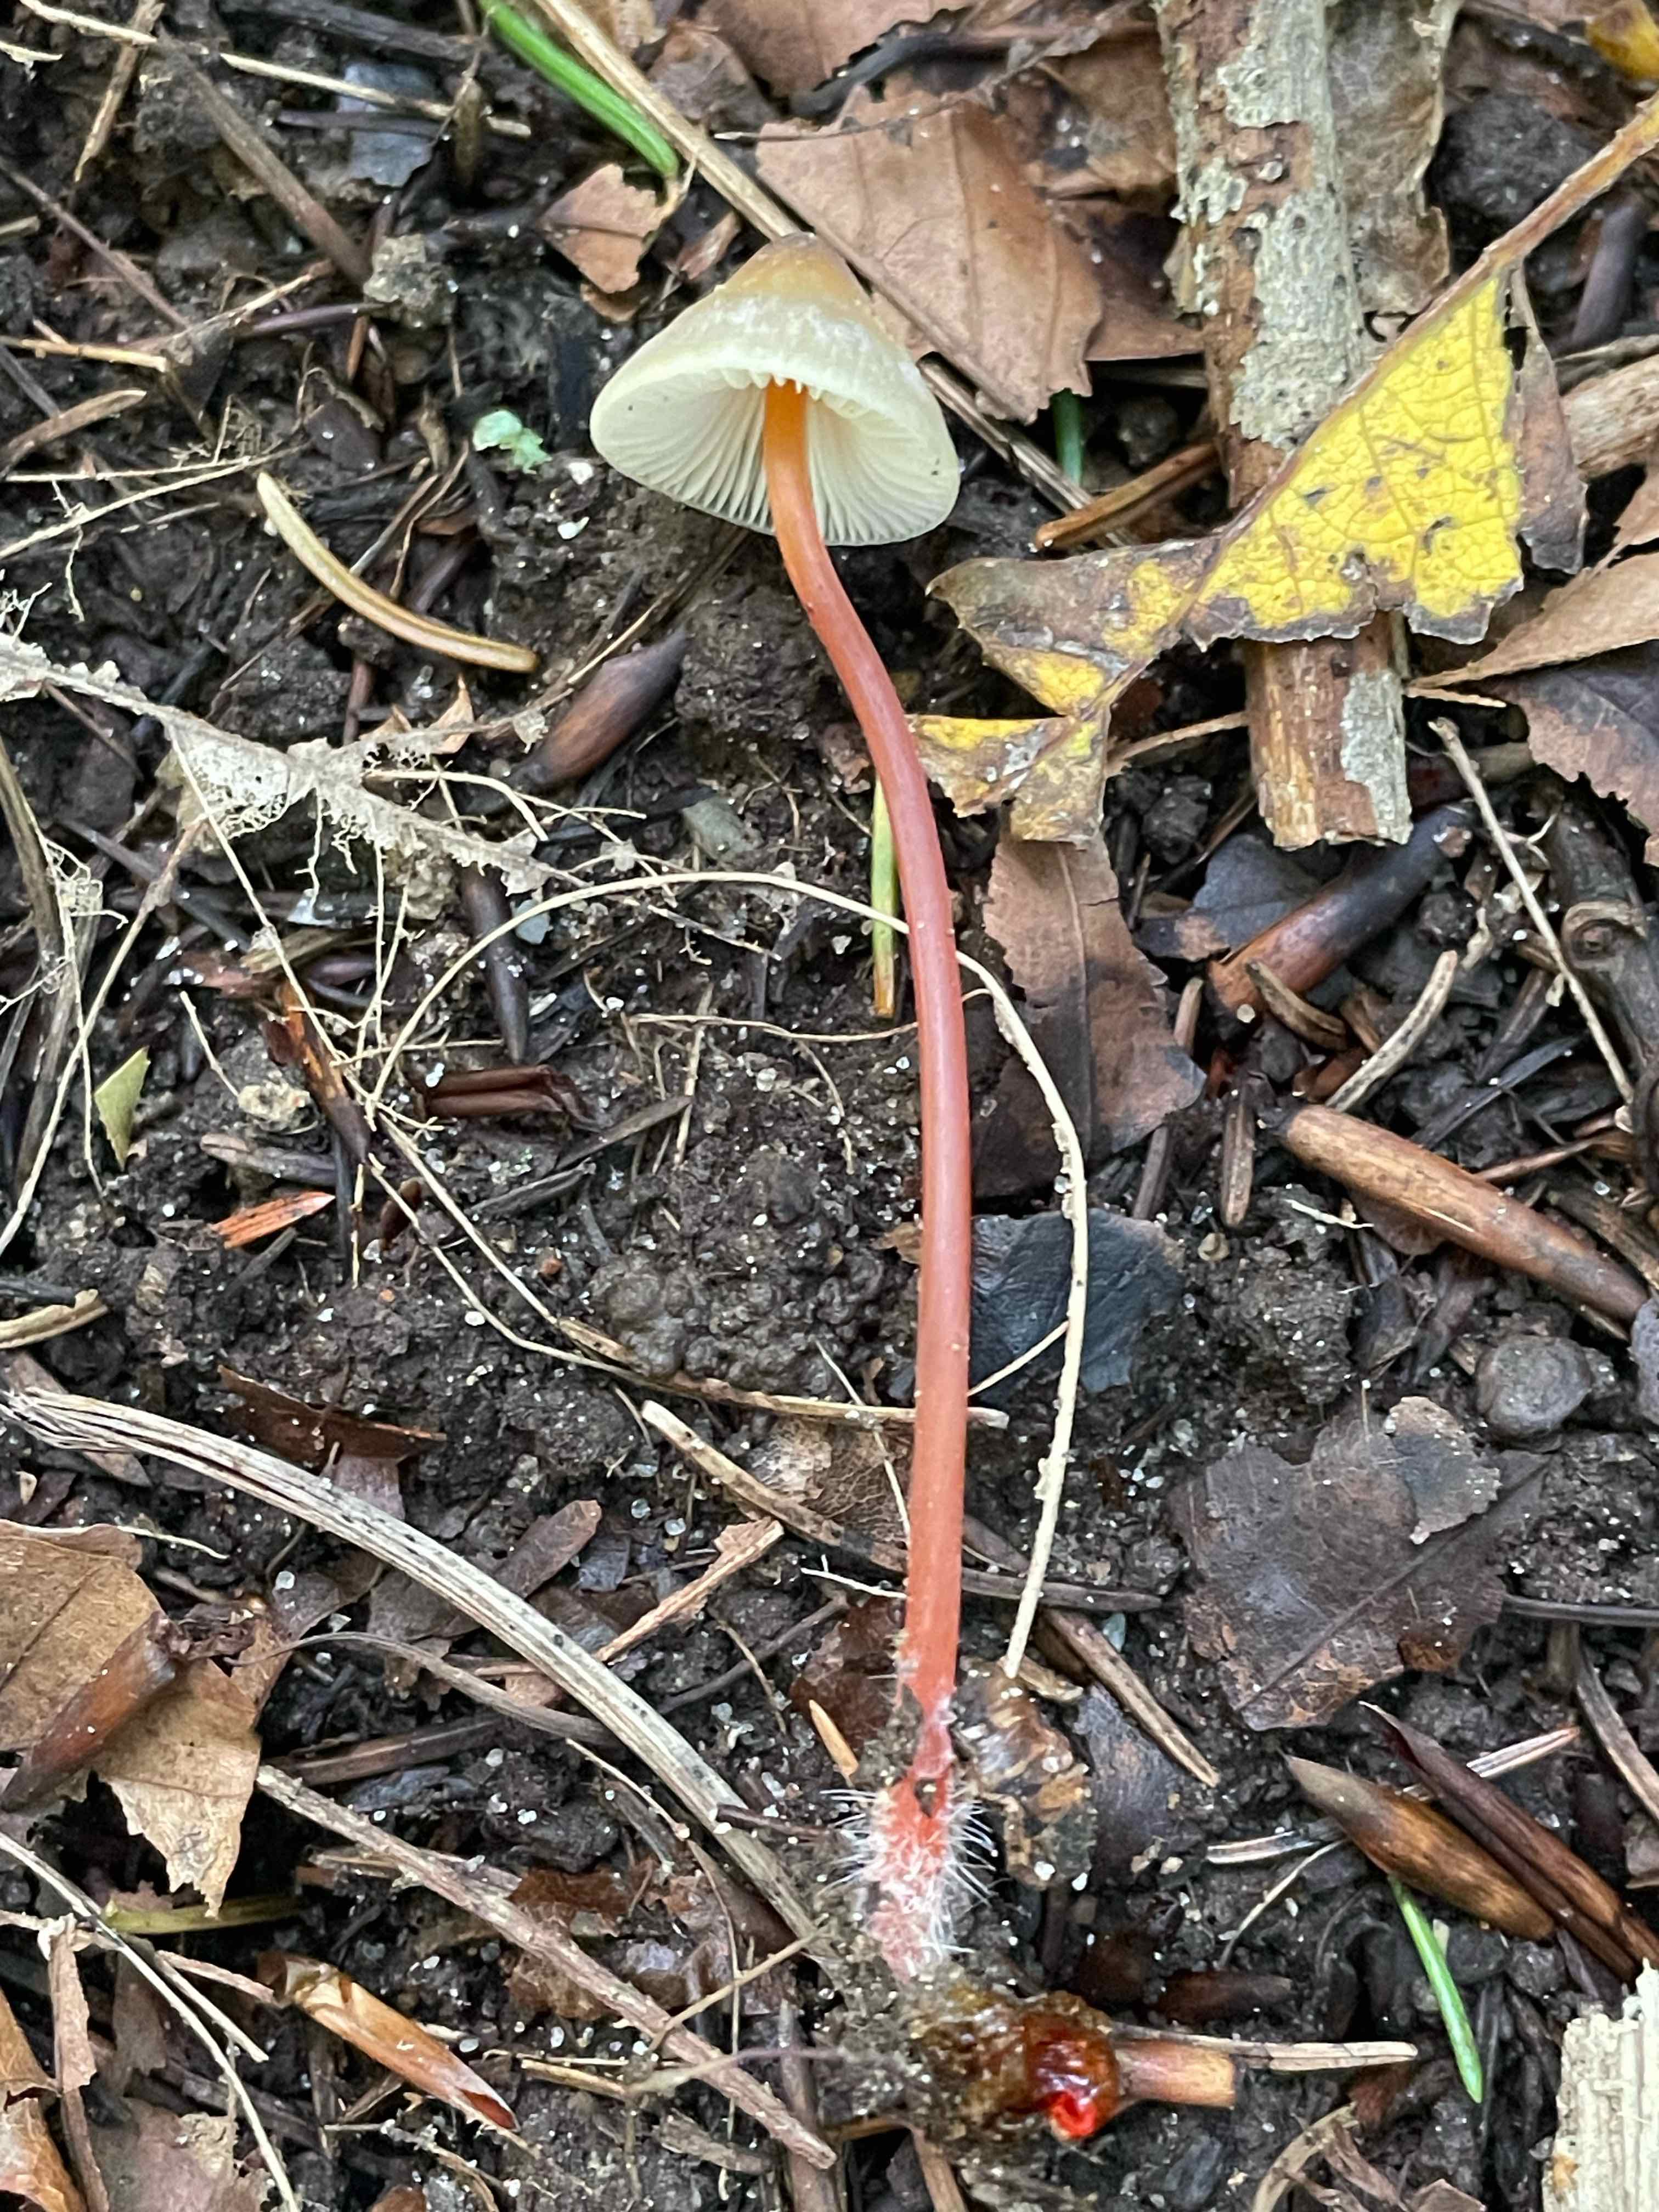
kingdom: Fungi
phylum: Basidiomycota
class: Agaricomycetes
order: Agaricales
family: Mycenaceae
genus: Mycena
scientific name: Mycena crocata
